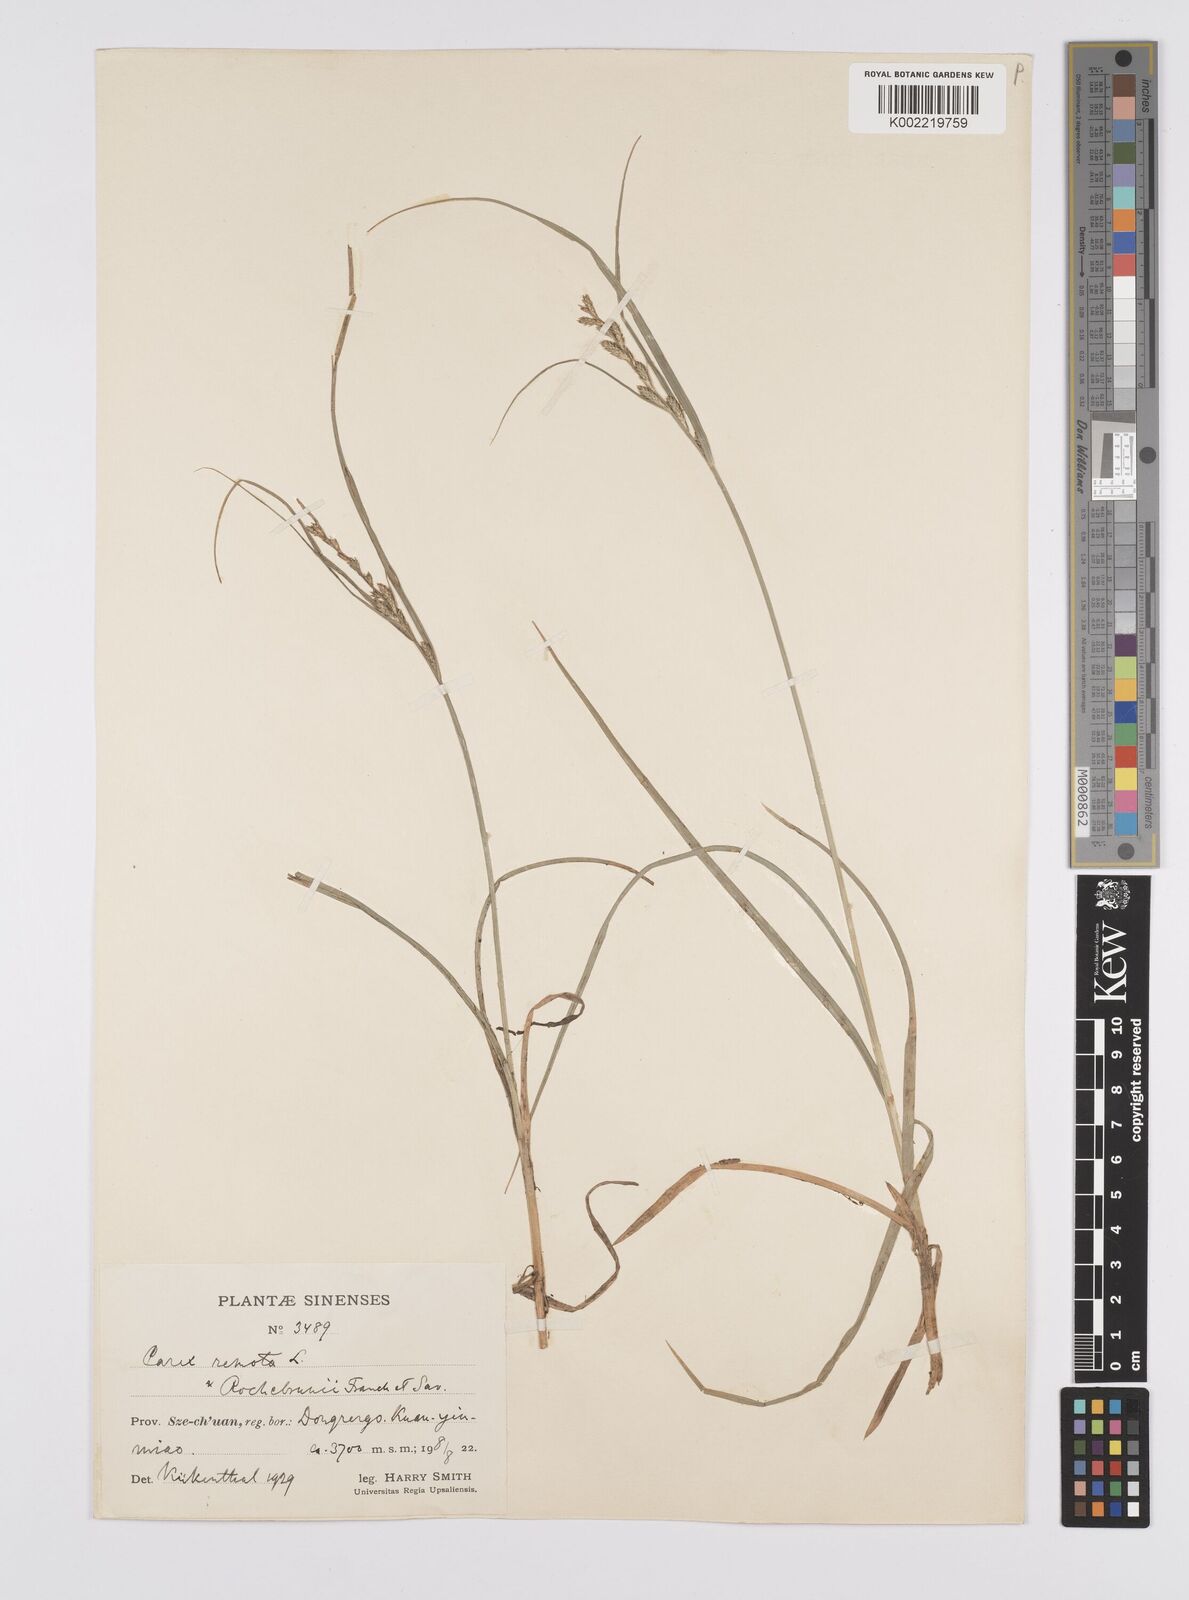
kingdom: Plantae
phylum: Tracheophyta
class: Liliopsida
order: Poales
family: Cyperaceae
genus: Carex
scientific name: Carex remota
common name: Remote sedge
